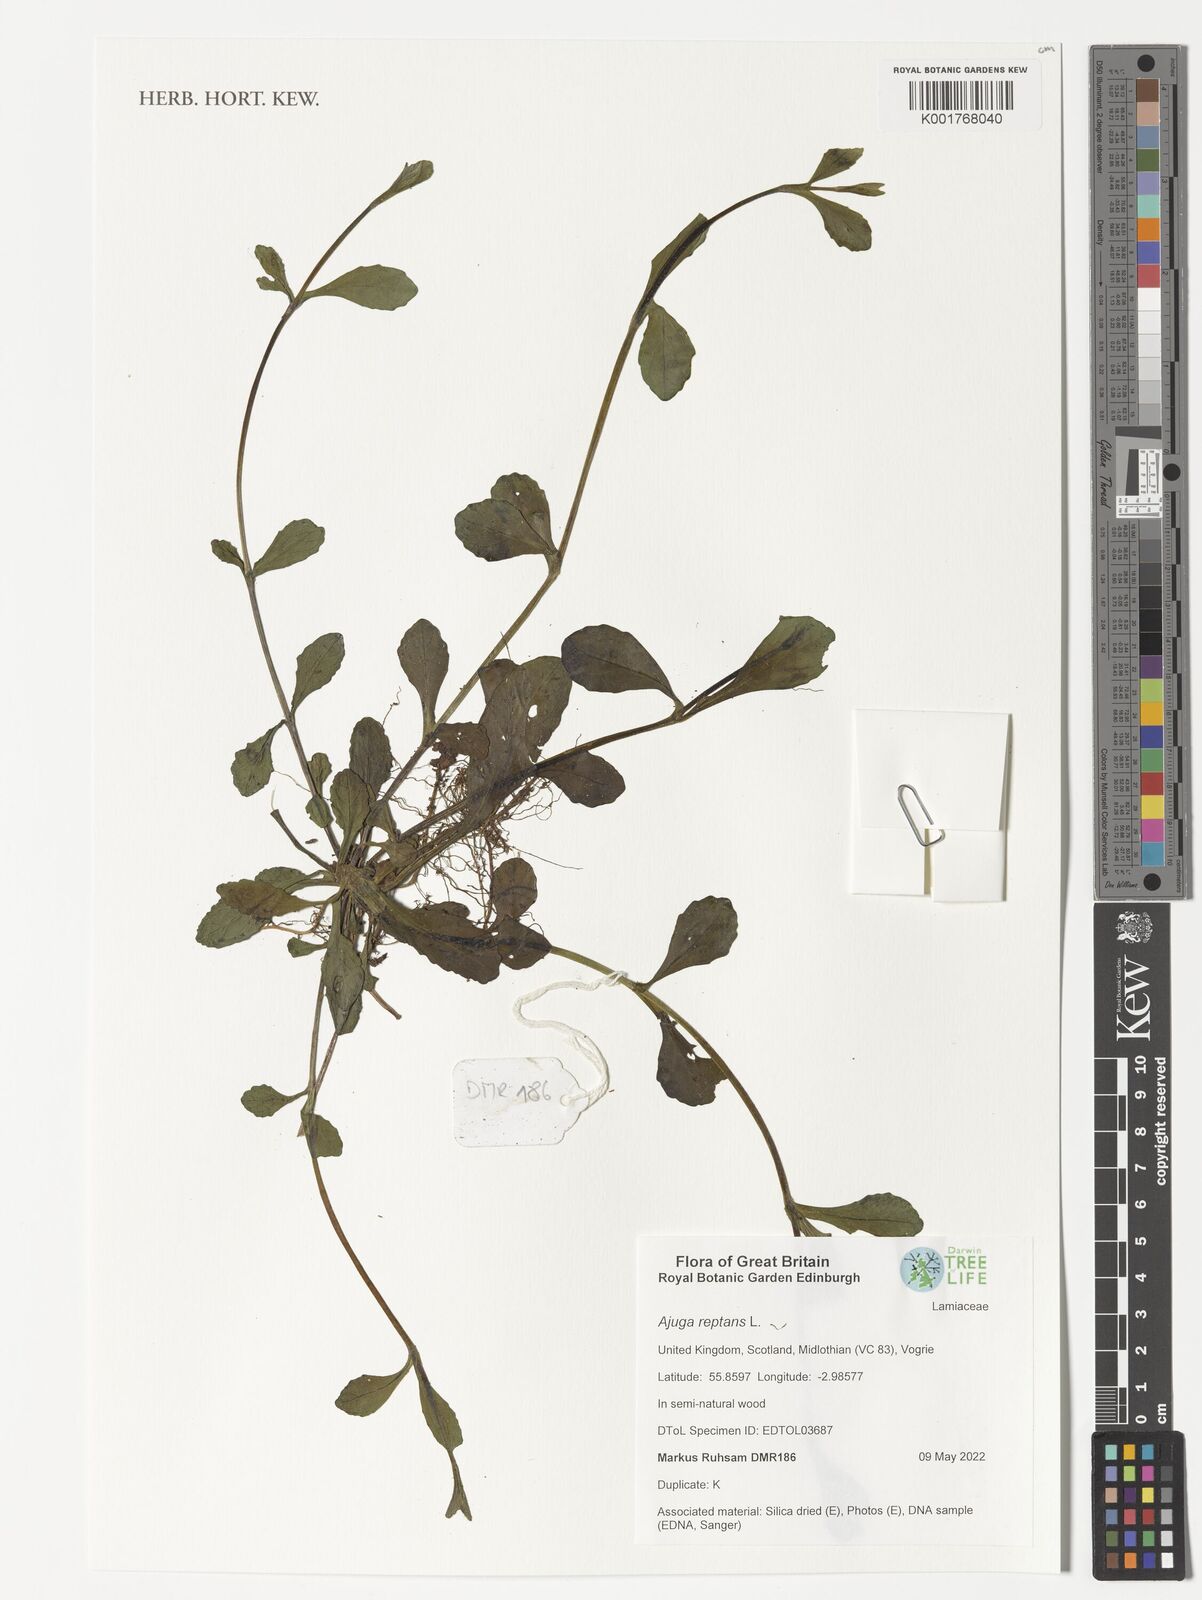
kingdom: Plantae
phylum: Tracheophyta
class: Magnoliopsida
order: Lamiales
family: Lamiaceae
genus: Ajuga
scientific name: Ajuga reptans
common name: Bugle
